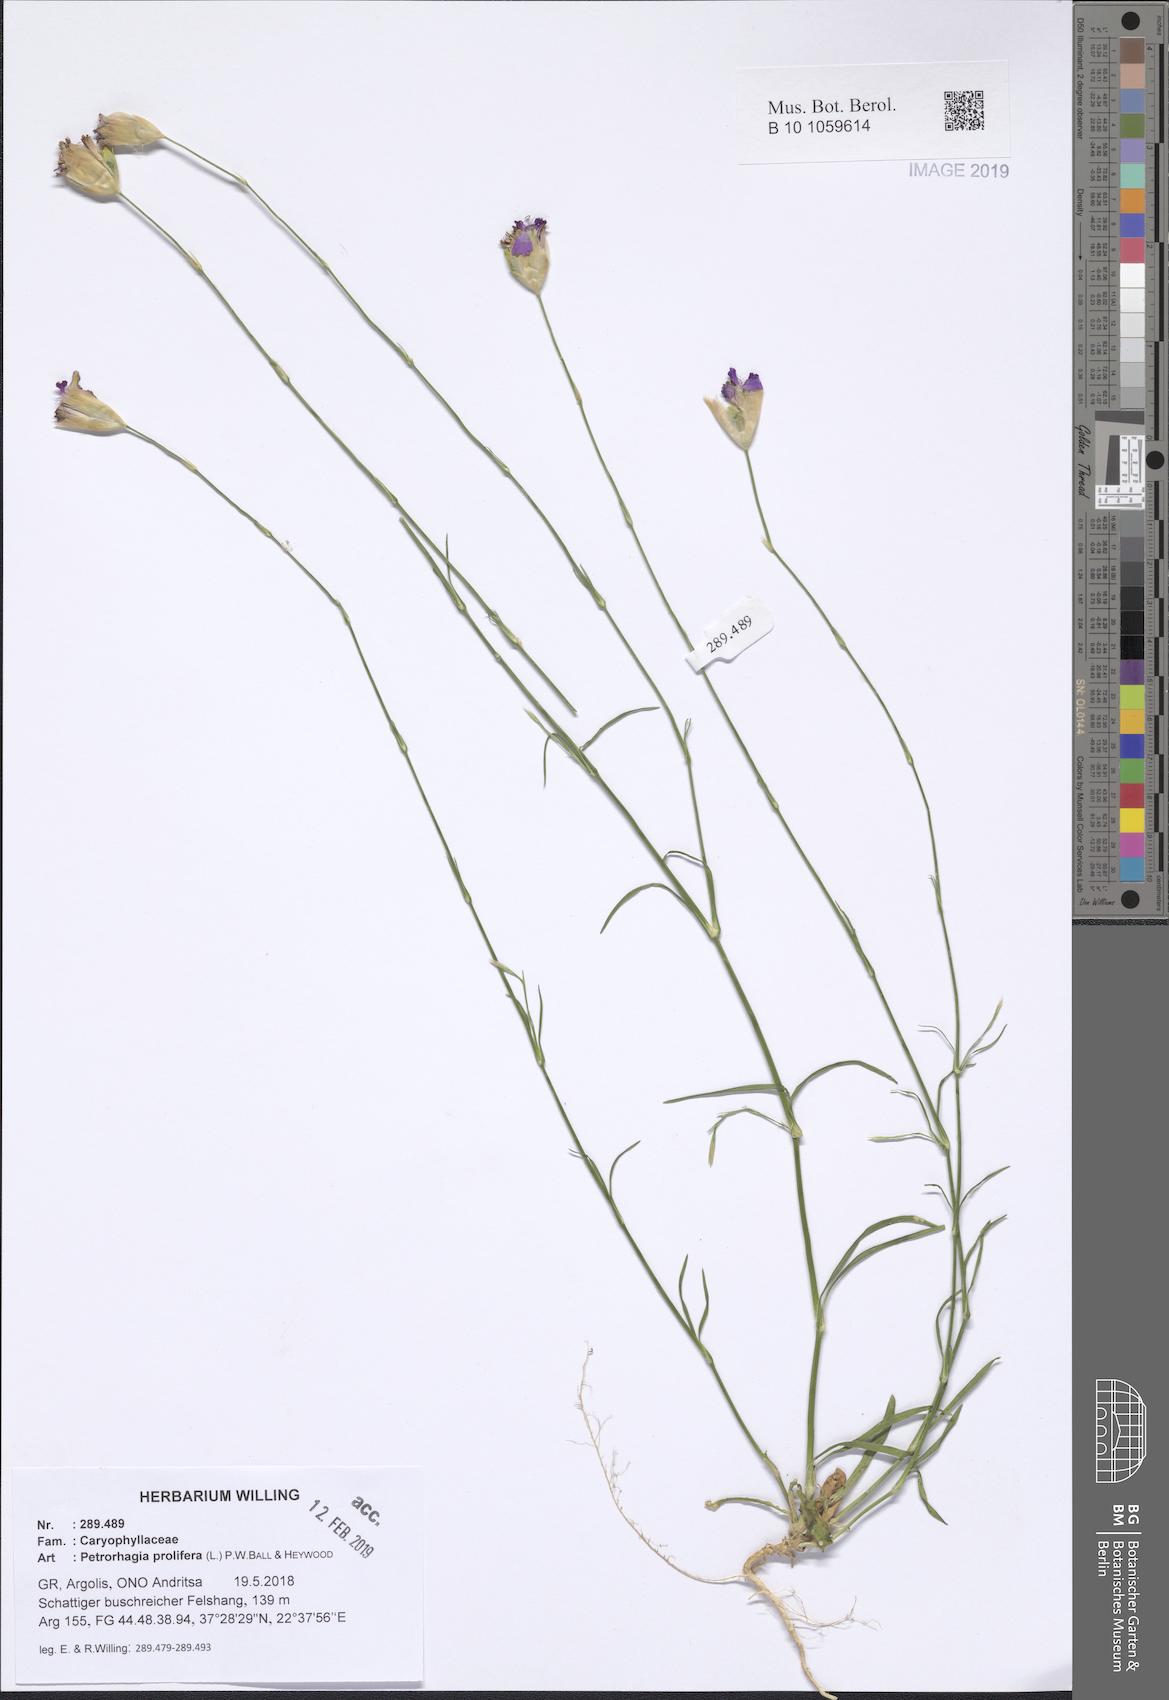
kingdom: Plantae
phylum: Tracheophyta
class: Magnoliopsida
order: Caryophyllales
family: Caryophyllaceae
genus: Petrorhagia
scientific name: Petrorhagia prolifera
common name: Proliferous pink
